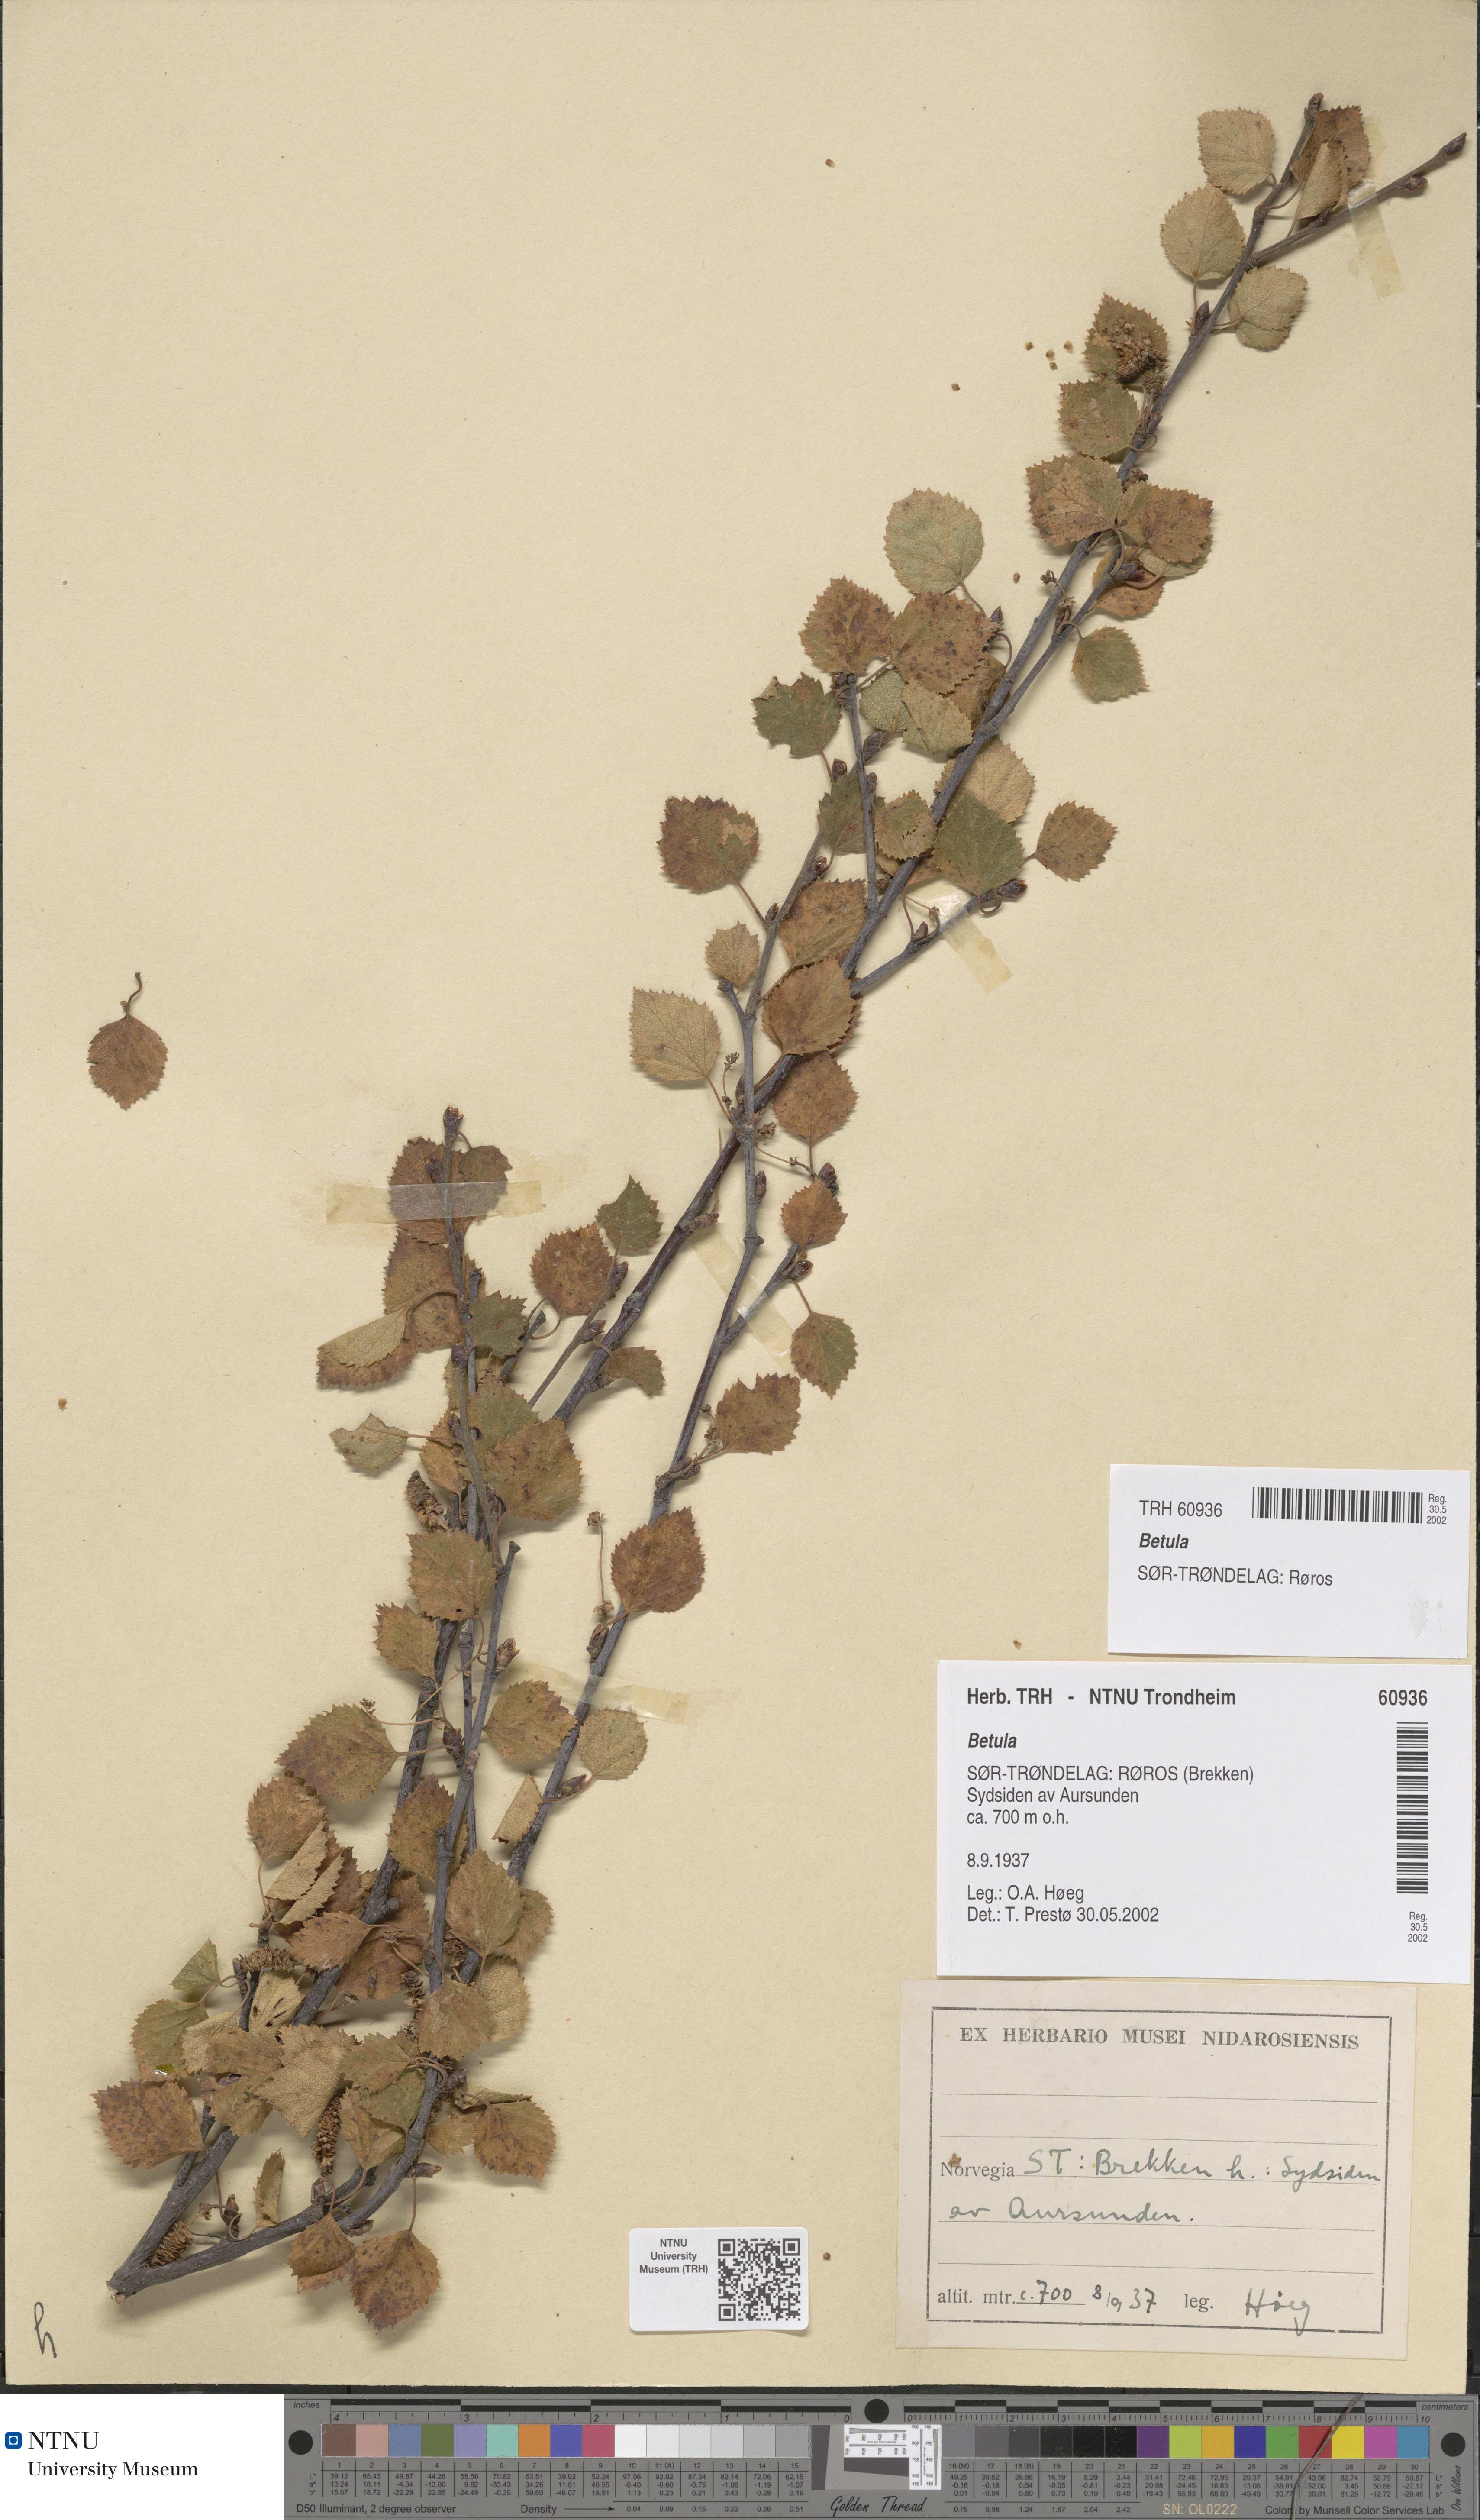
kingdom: Plantae
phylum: Tracheophyta
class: Magnoliopsida
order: Fagales
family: Betulaceae
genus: Betula
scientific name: Betula
